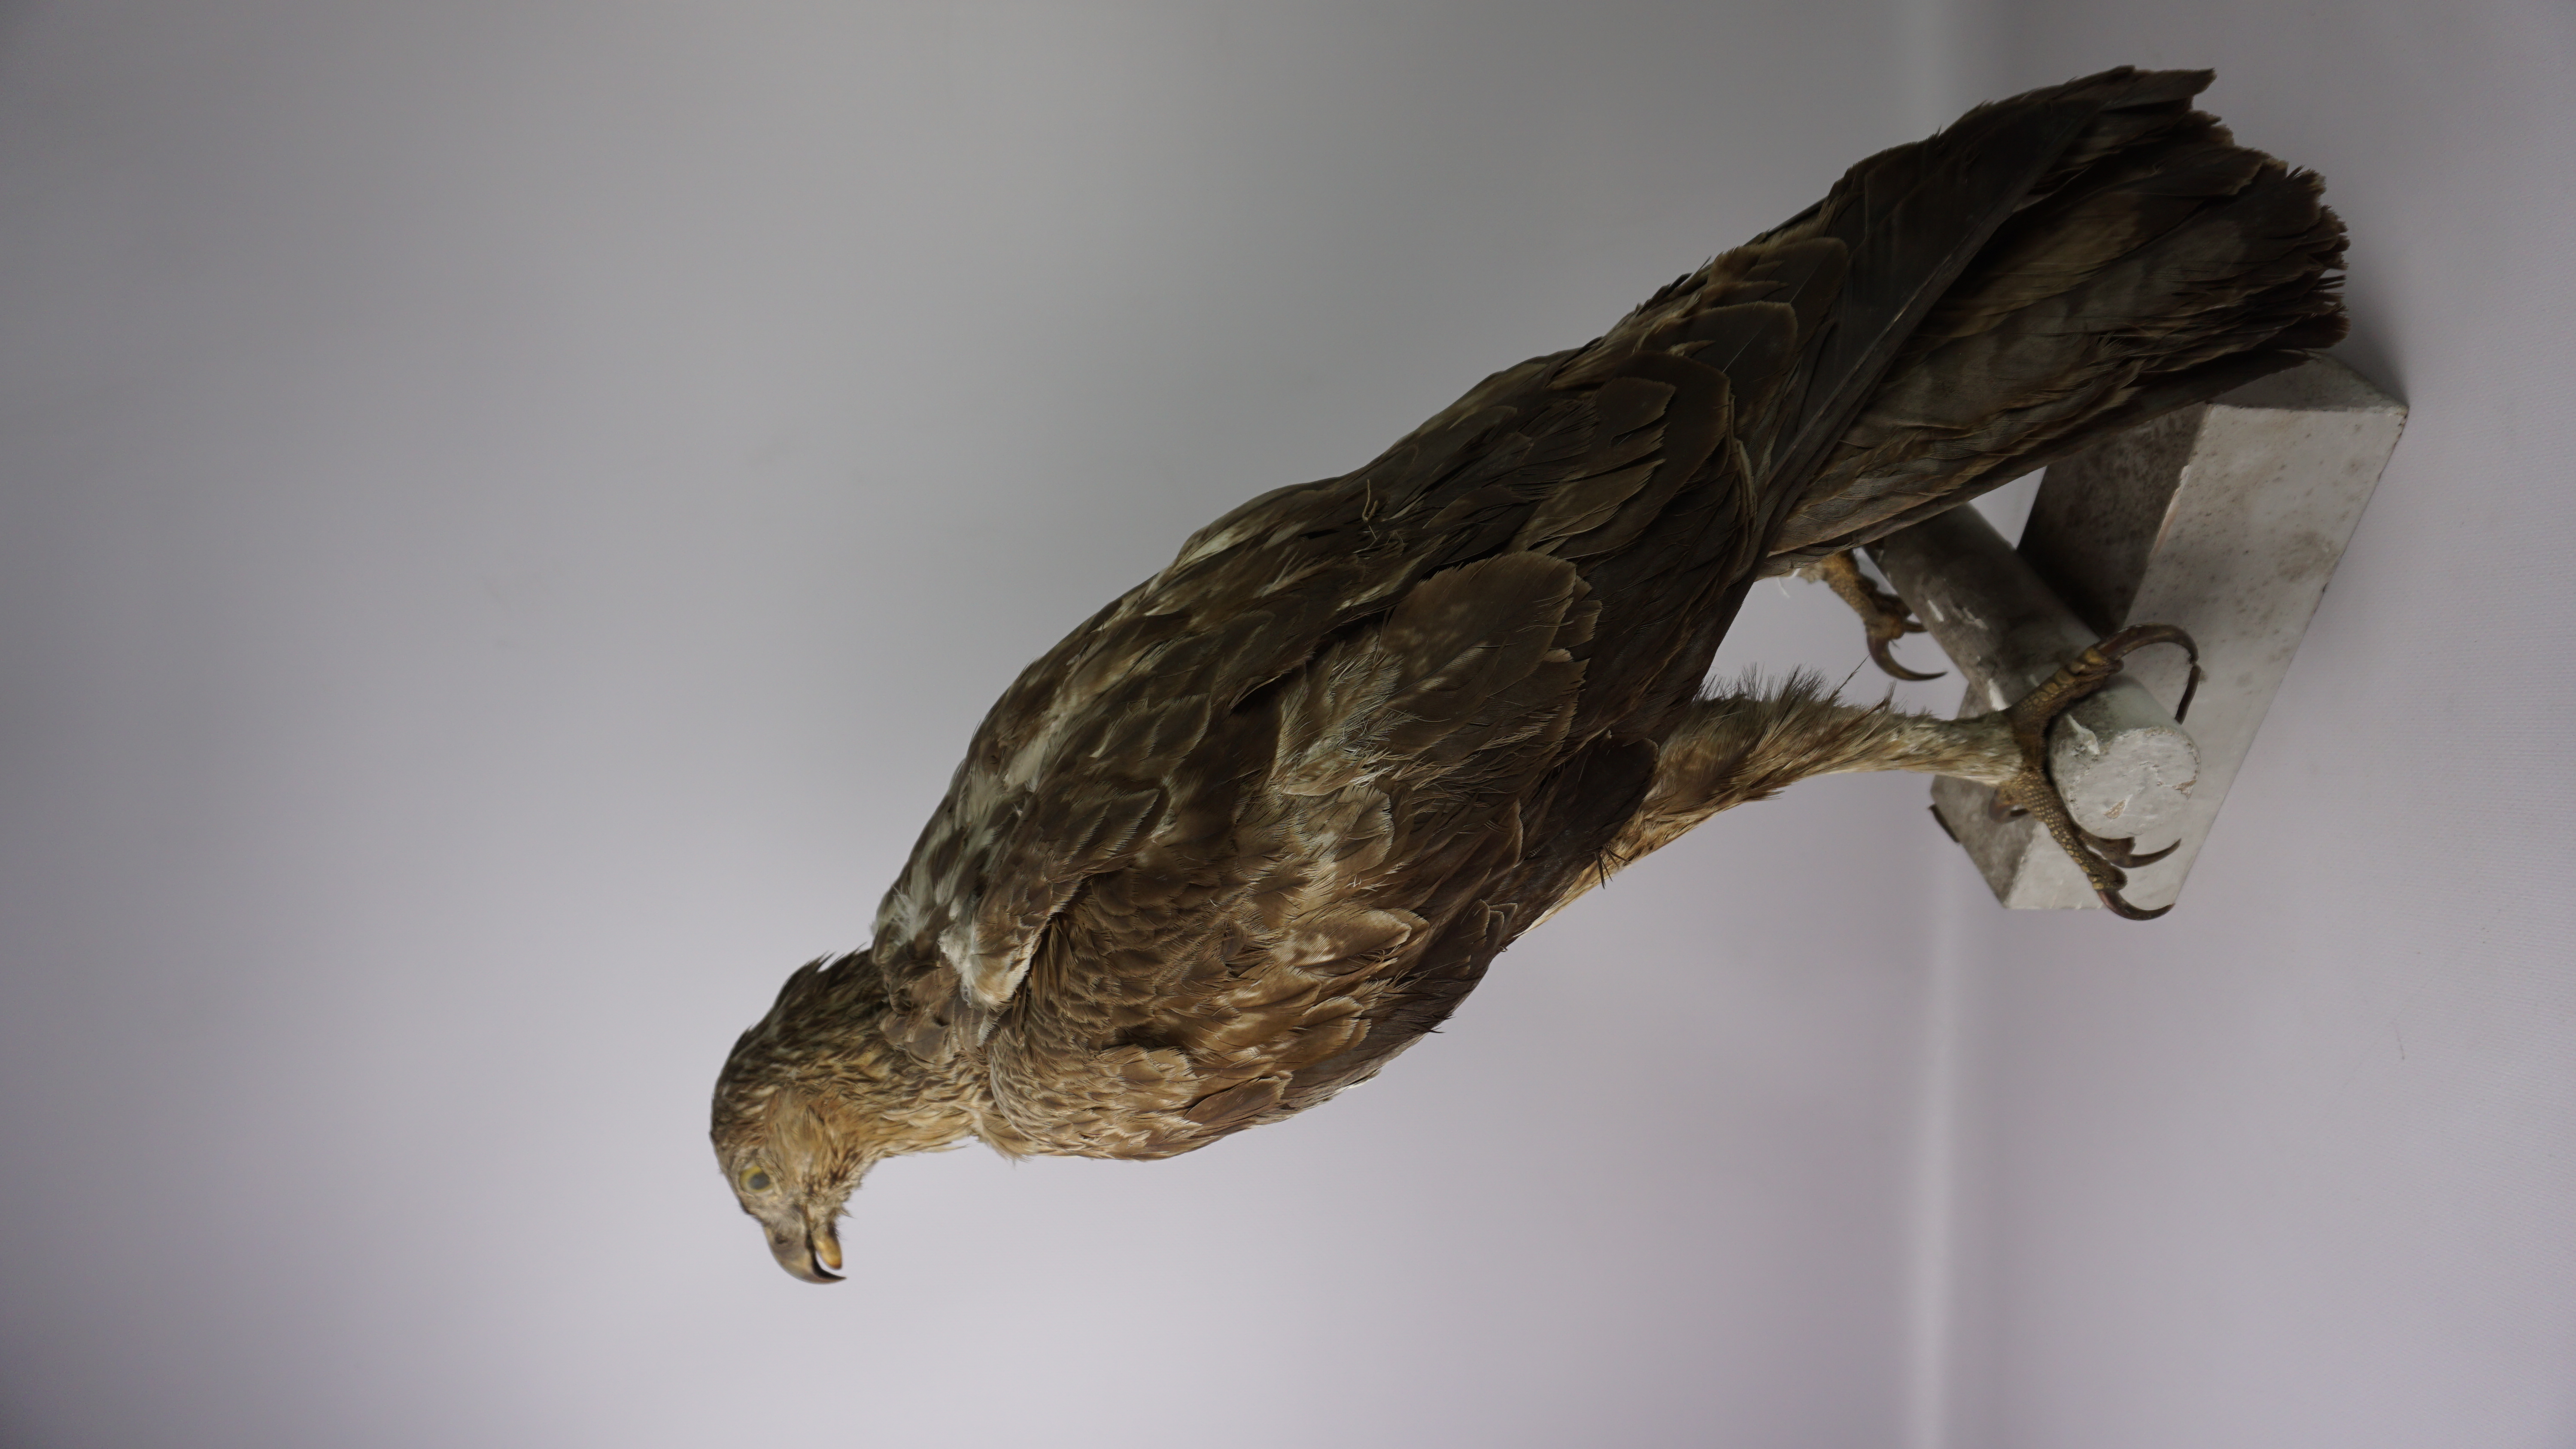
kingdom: Animalia
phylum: Chordata
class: Aves
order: Accipitriformes
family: Accipitridae
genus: Aquila
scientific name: Aquila fasciata
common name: Bonelli's eagle
